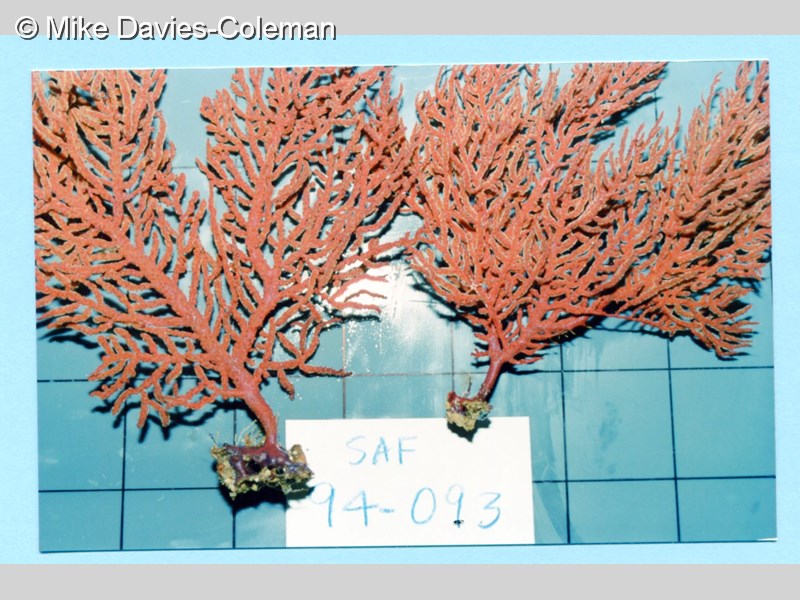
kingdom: Animalia
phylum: Cnidaria
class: Anthozoa
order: Malacalcyonacea
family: Gorgoniidae
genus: Leptogorgia
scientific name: Leptogorgia palma
